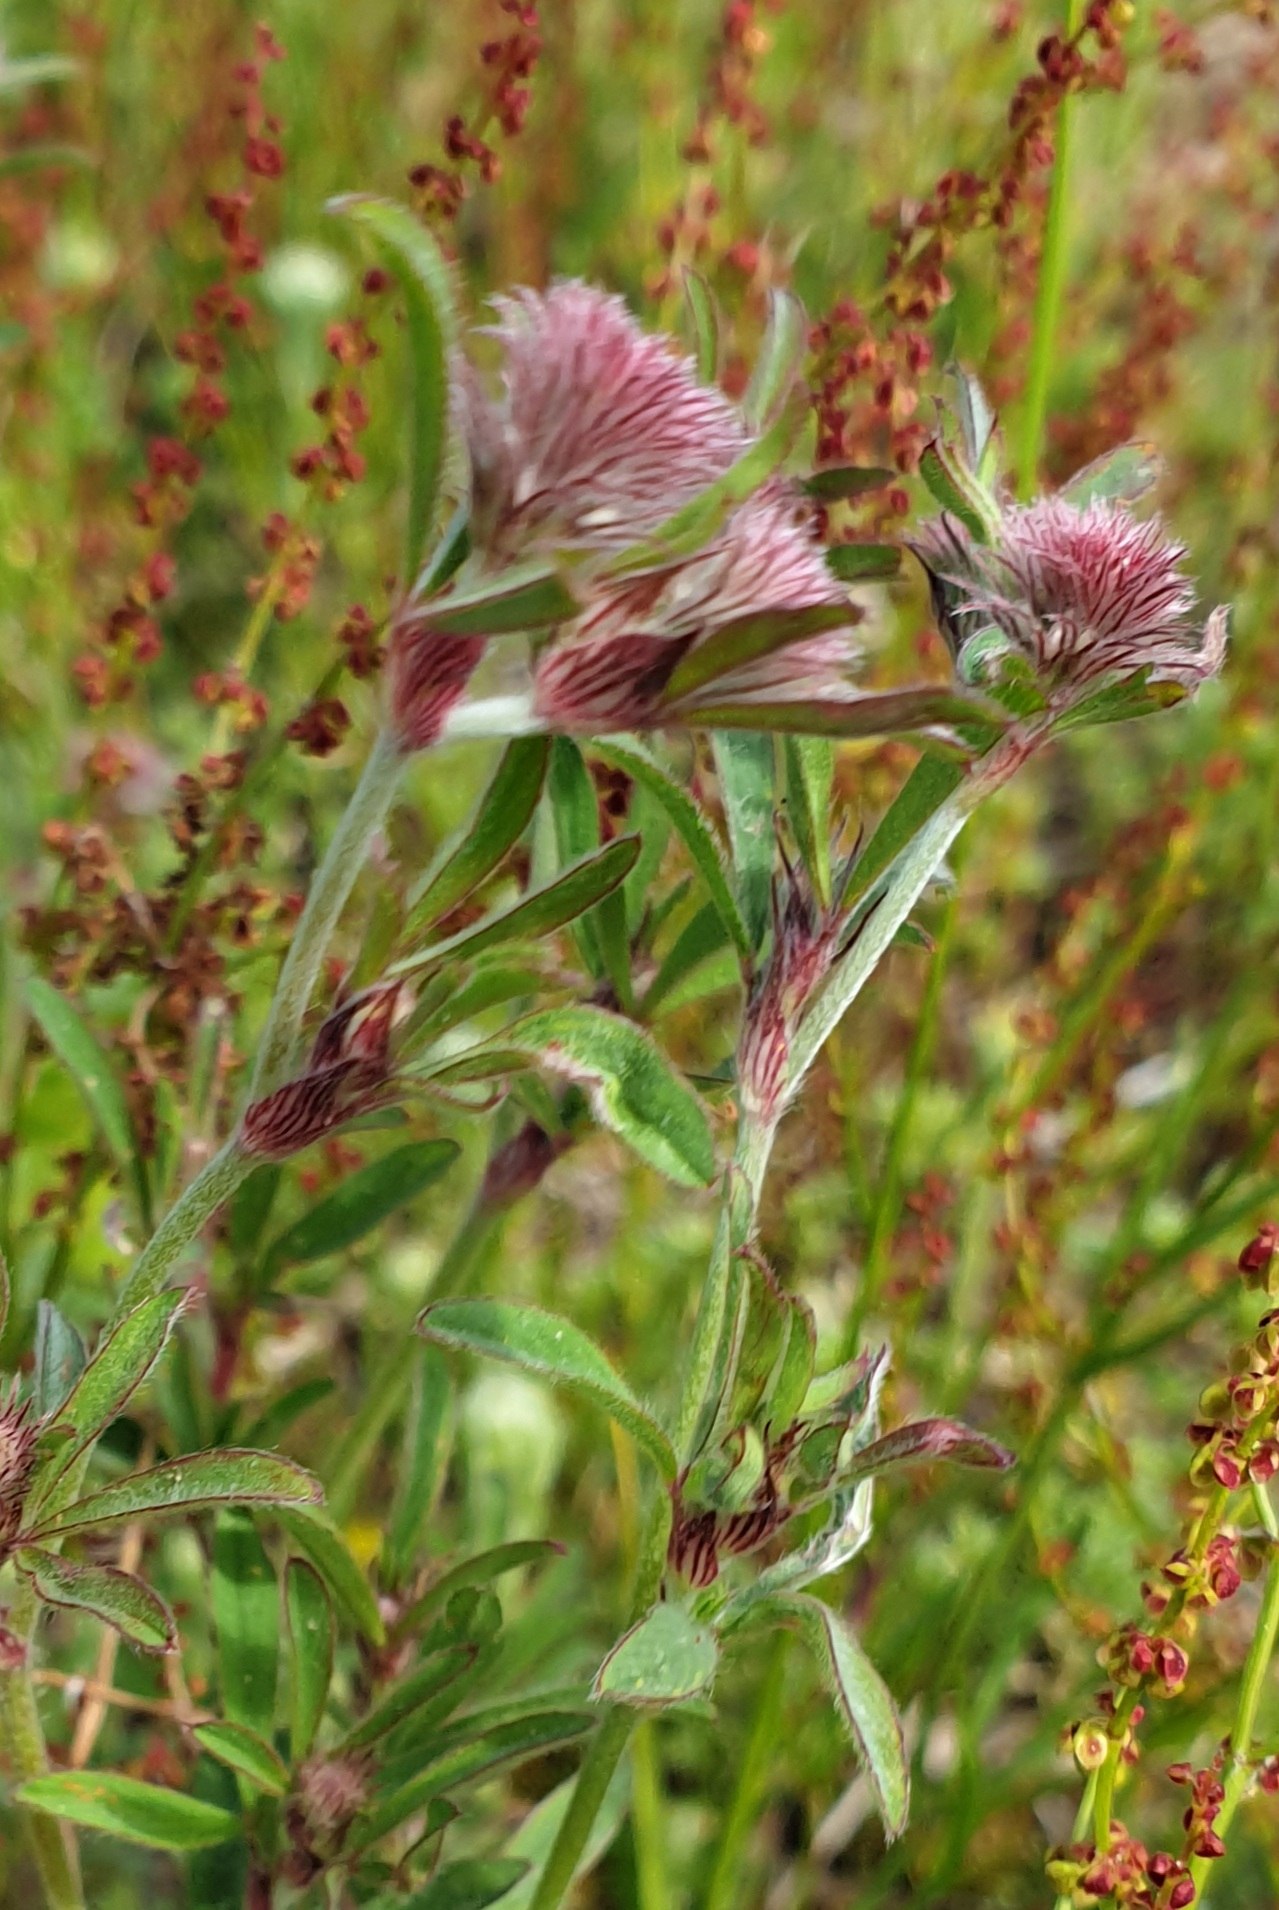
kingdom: Plantae
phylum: Tracheophyta
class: Magnoliopsida
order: Fabales
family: Fabaceae
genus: Trifolium
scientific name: Trifolium arvense
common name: Hare-kløver
